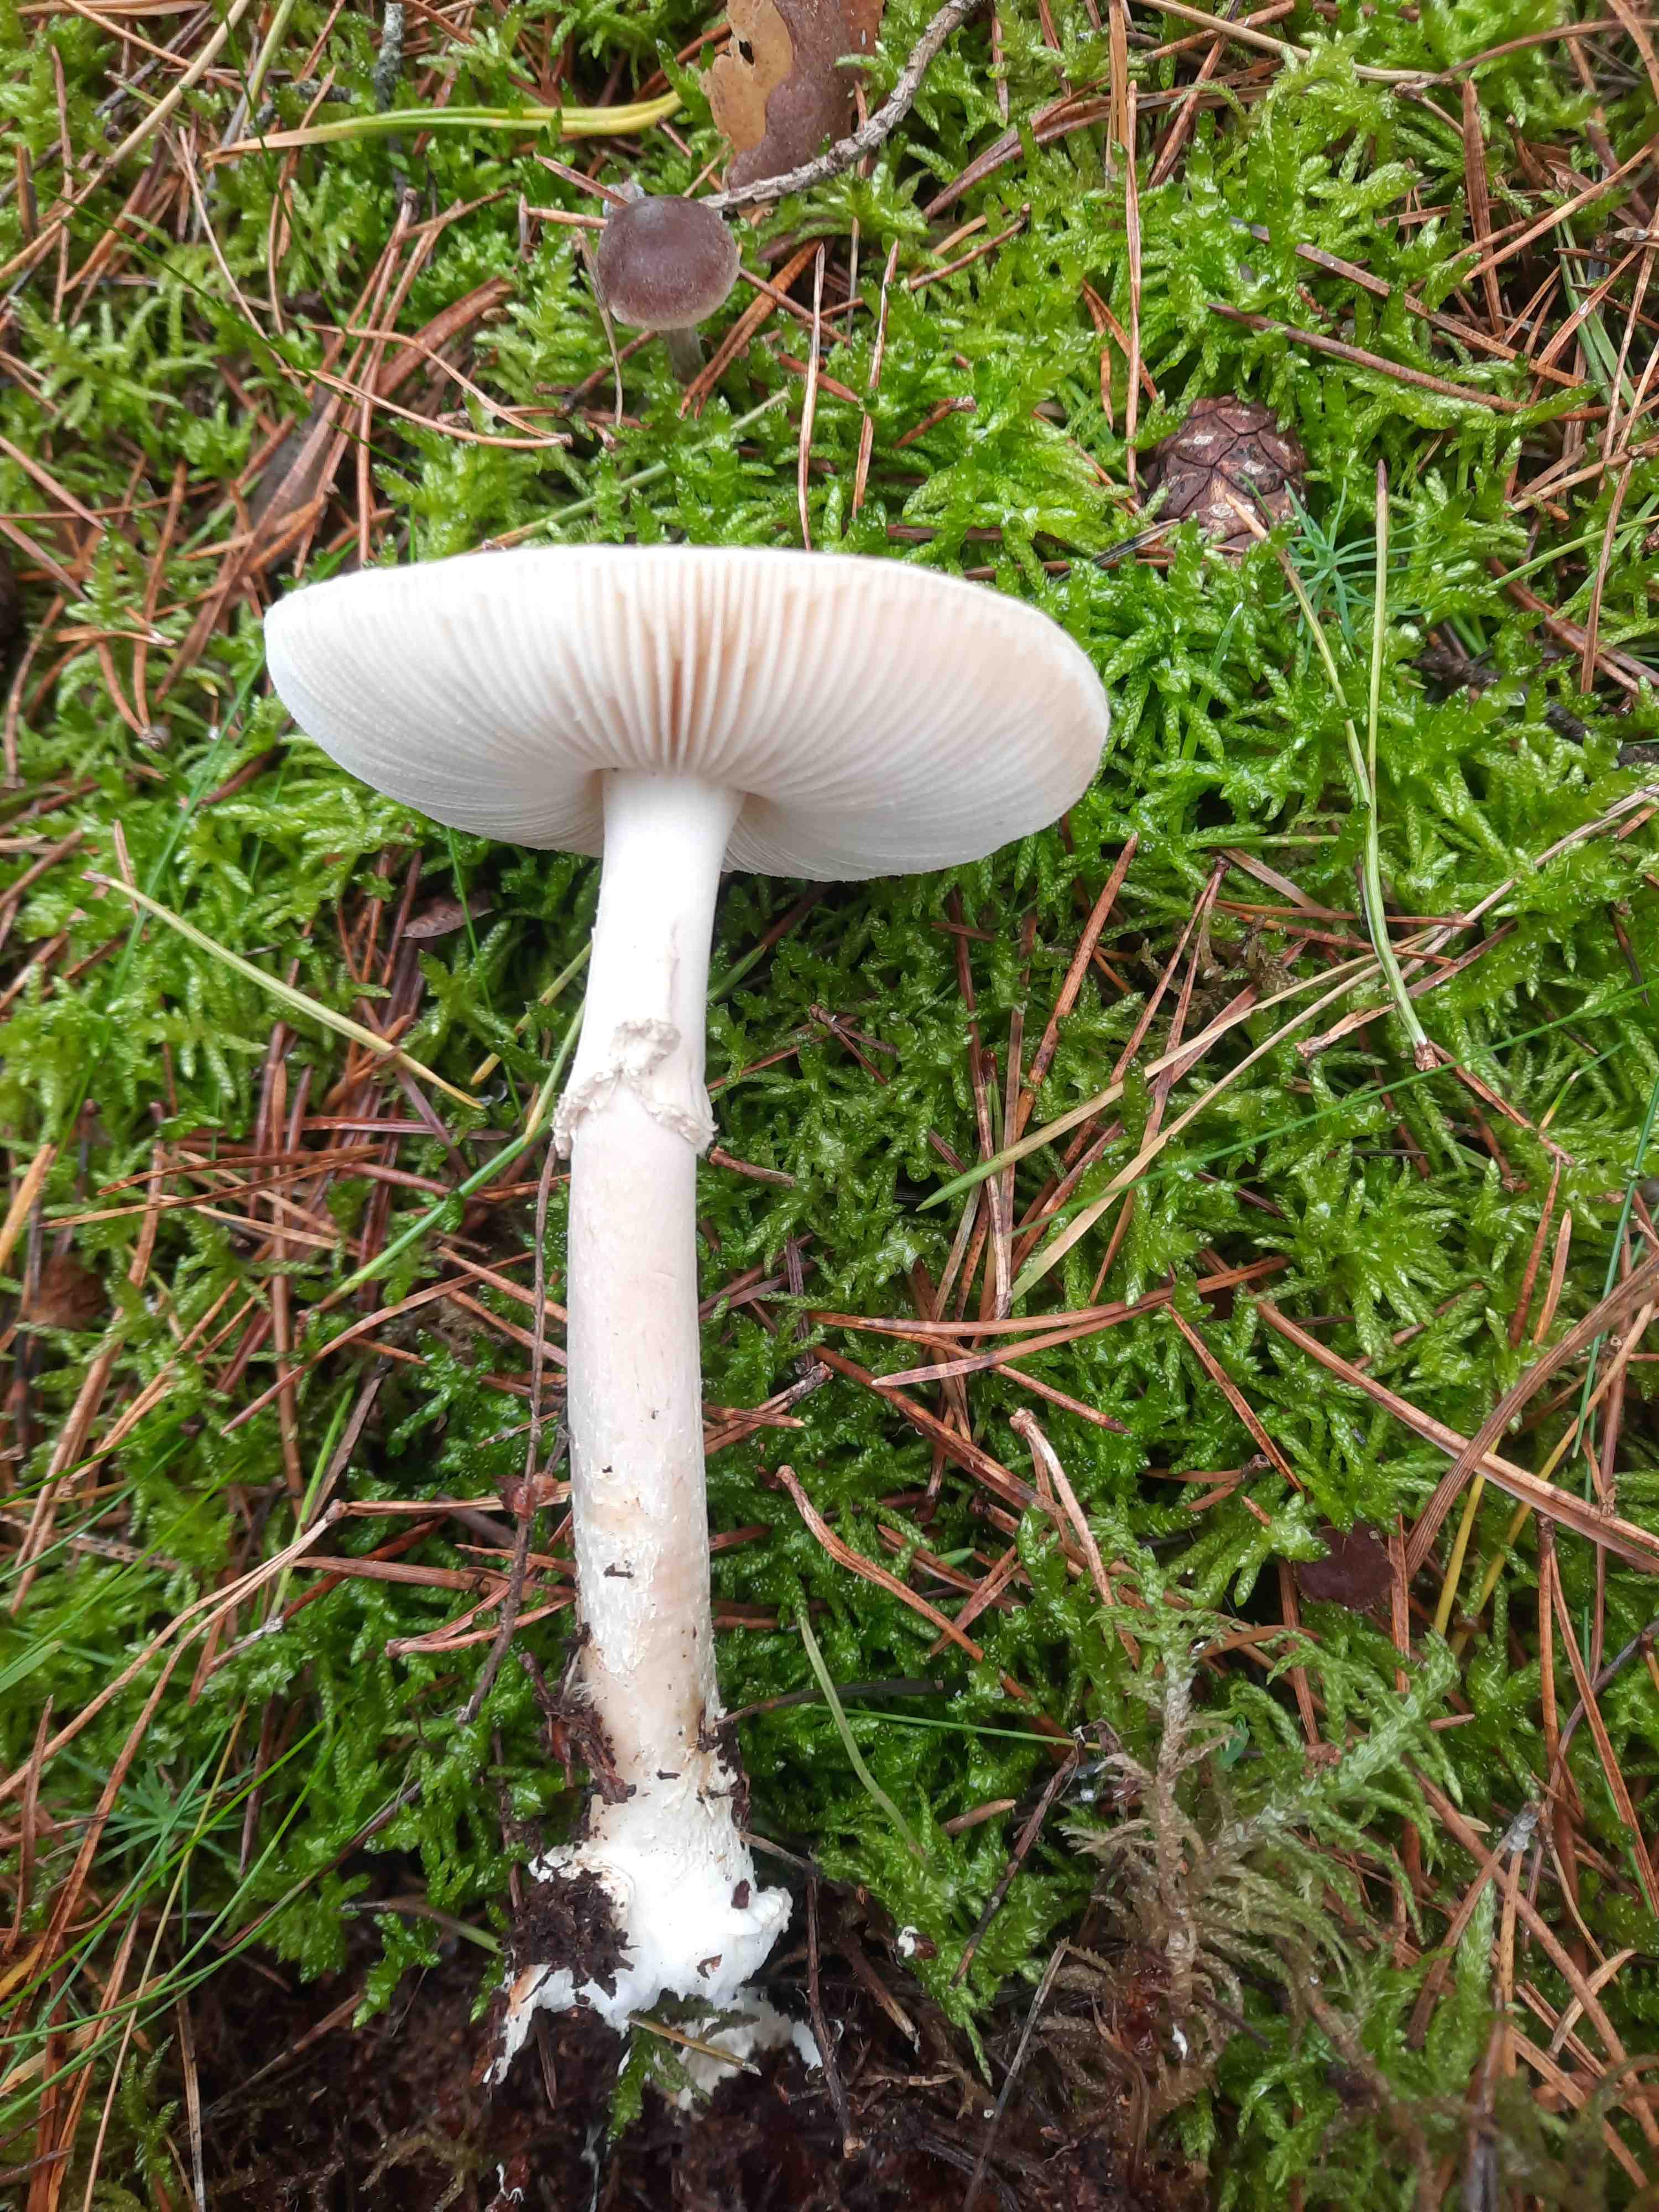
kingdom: Fungi
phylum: Basidiomycota
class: Agaricomycetes
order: Agaricales
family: Amanitaceae
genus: Amanita
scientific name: Amanita virosa
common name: snehvid fluesvamp
